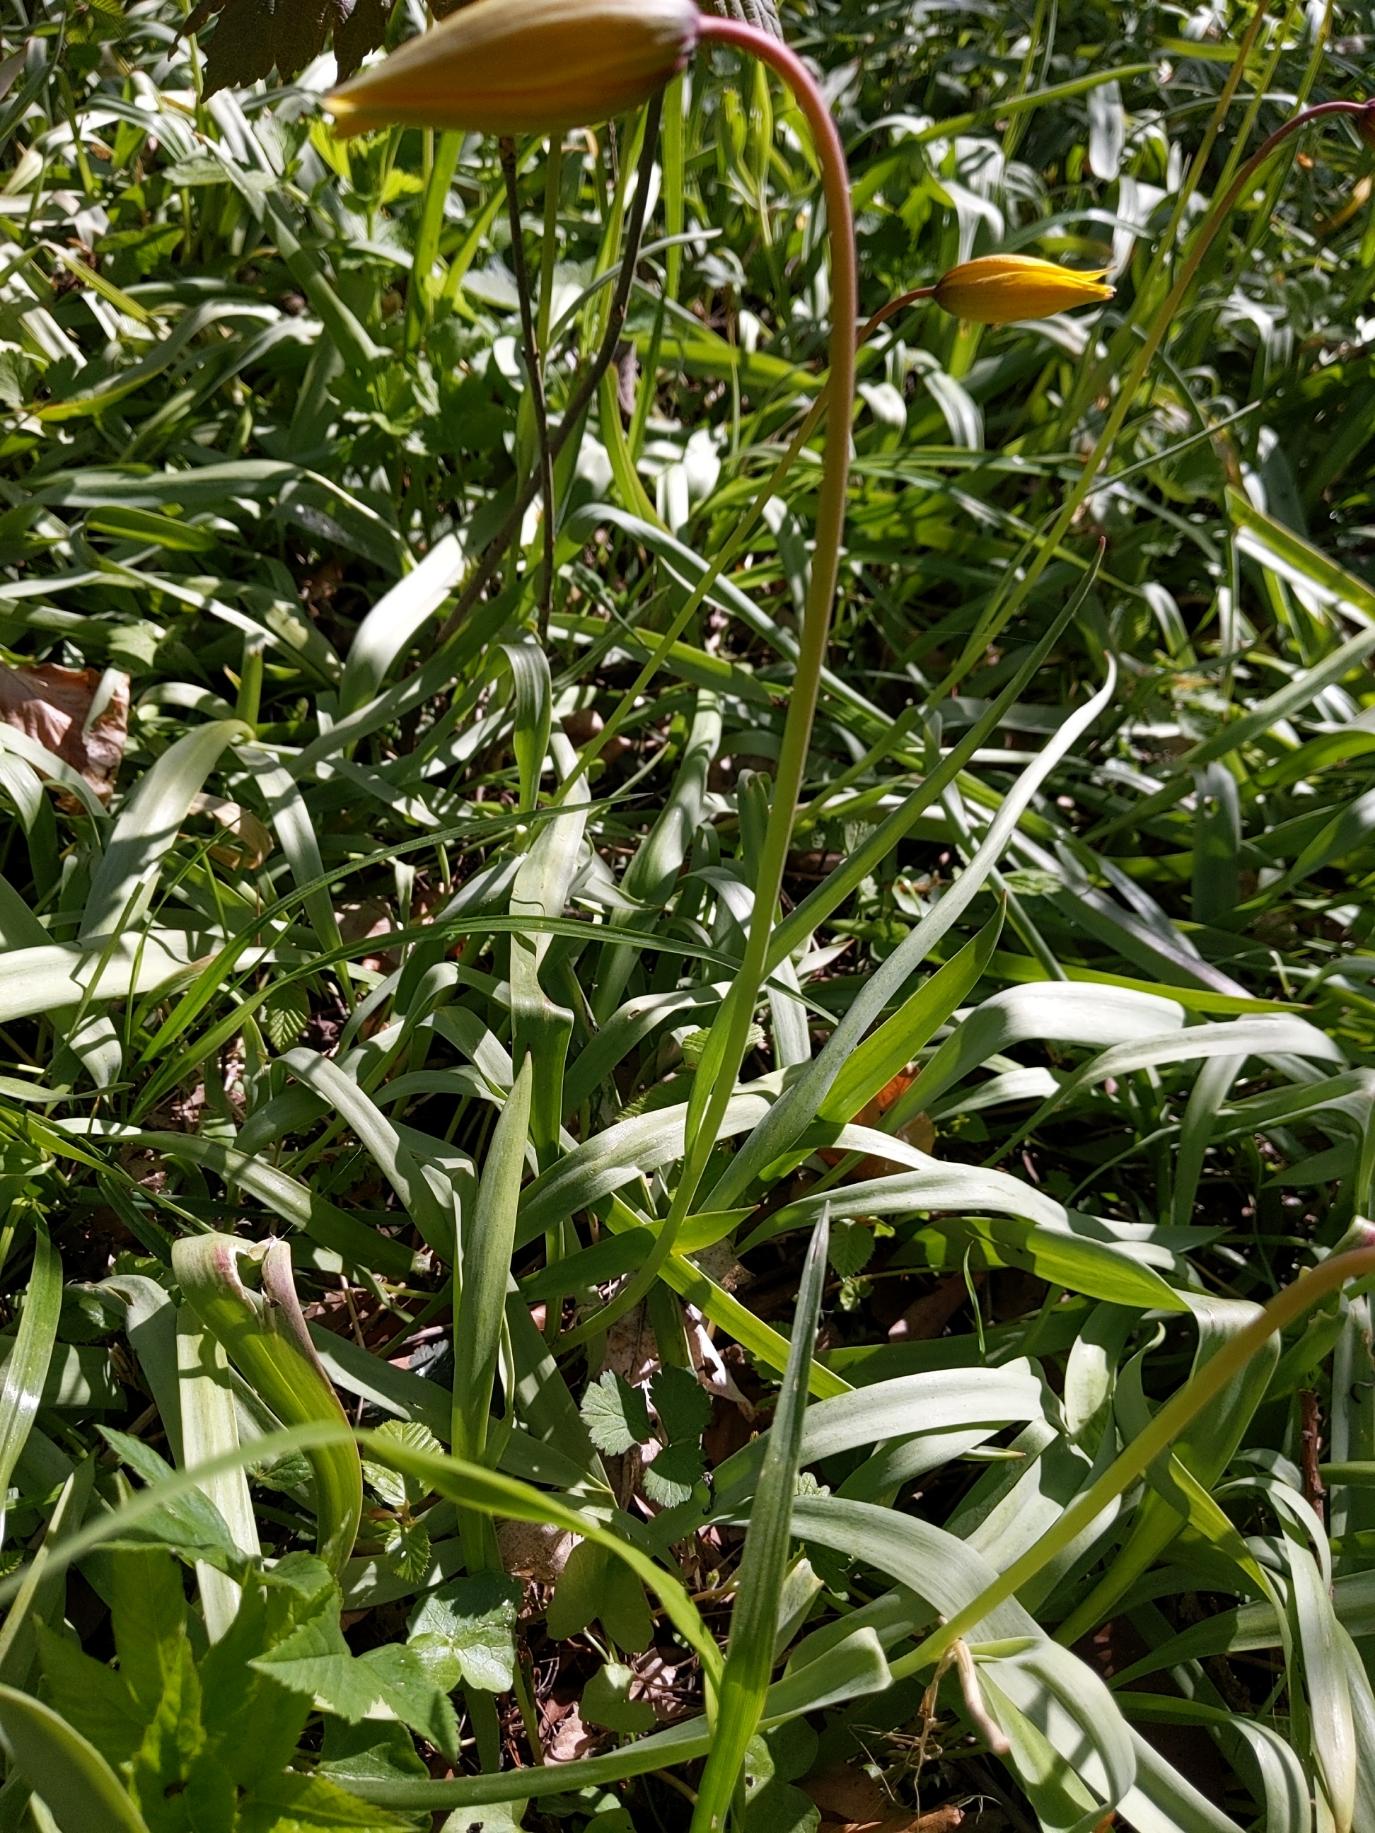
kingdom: Plantae
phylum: Tracheophyta
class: Liliopsida
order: Liliales
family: Liliaceae
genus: Tulipa
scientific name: Tulipa sylvestris
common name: Vild tulipan
